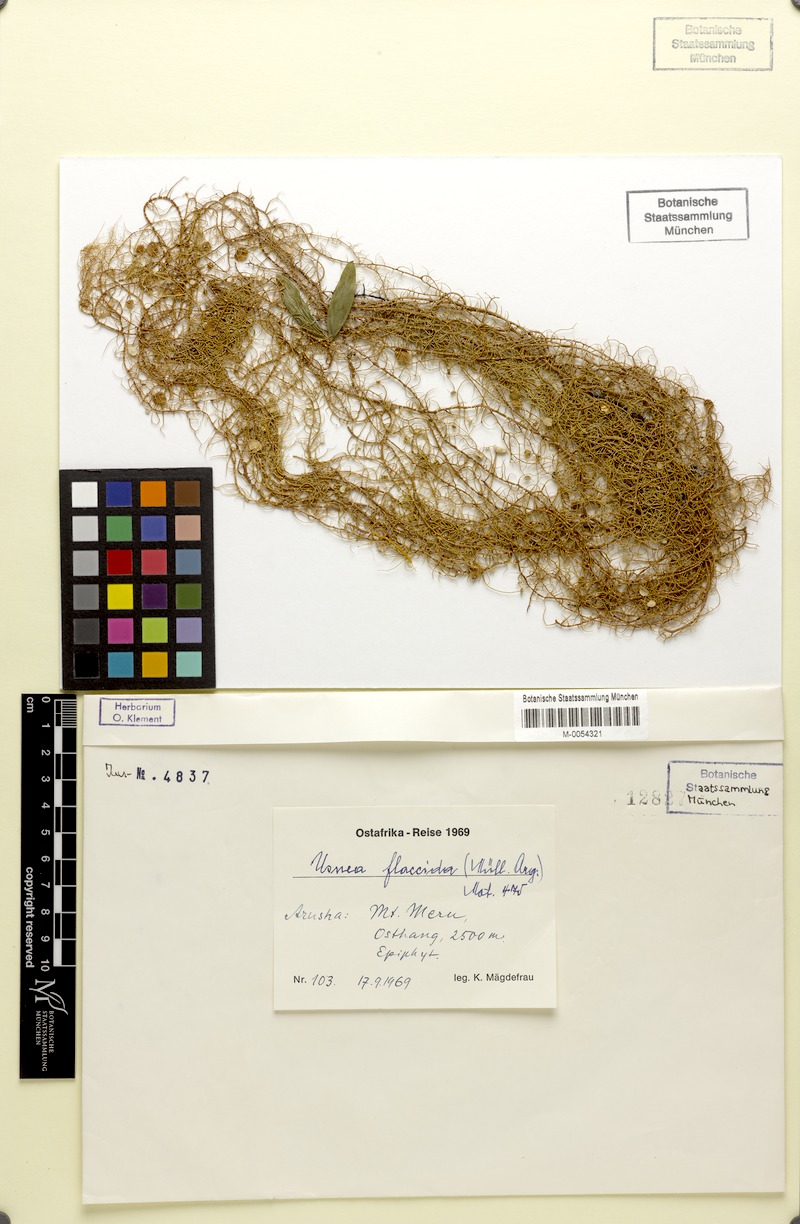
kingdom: Fungi
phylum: Ascomycota
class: Lecanoromycetes
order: Lecanorales
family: Parmeliaceae
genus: Xanthoparmelia
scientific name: Xanthoparmelia amplexula
